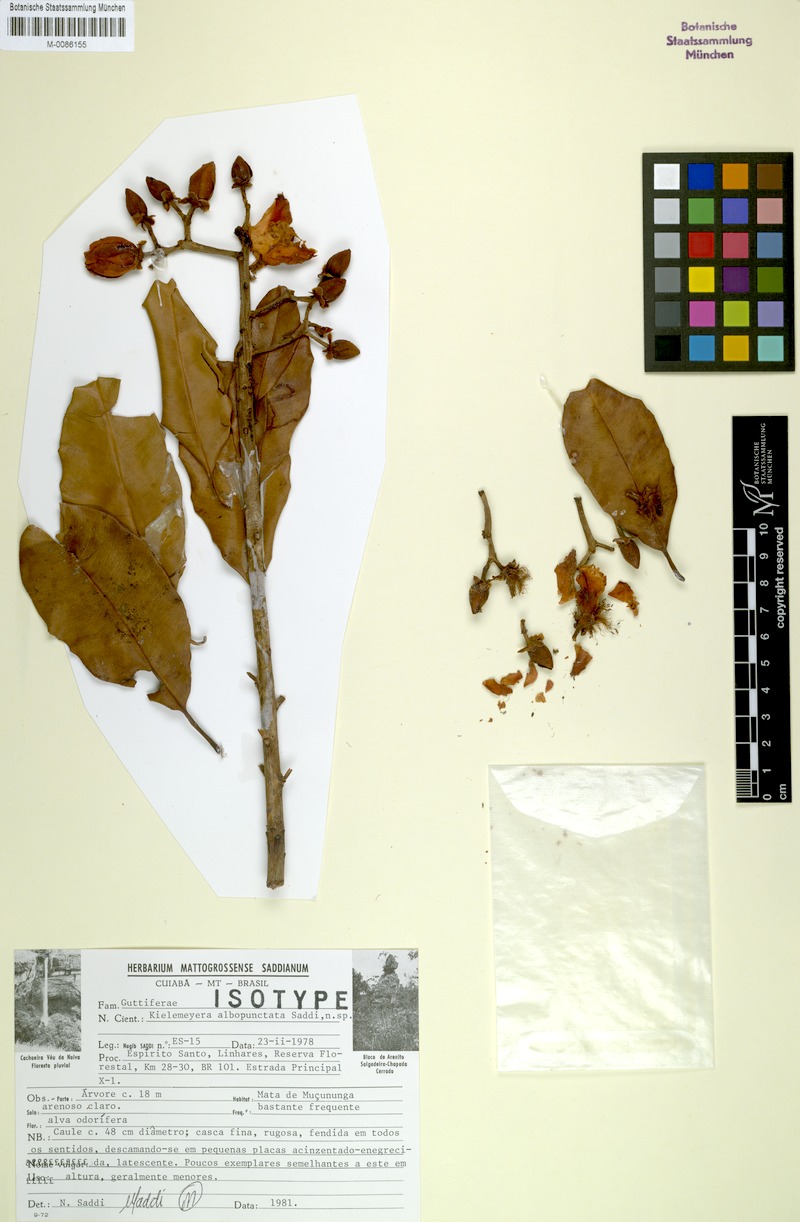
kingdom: Plantae
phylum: Tracheophyta
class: Magnoliopsida
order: Malpighiales
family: Calophyllaceae
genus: Kielmeyera
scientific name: Kielmeyera albopunctata
